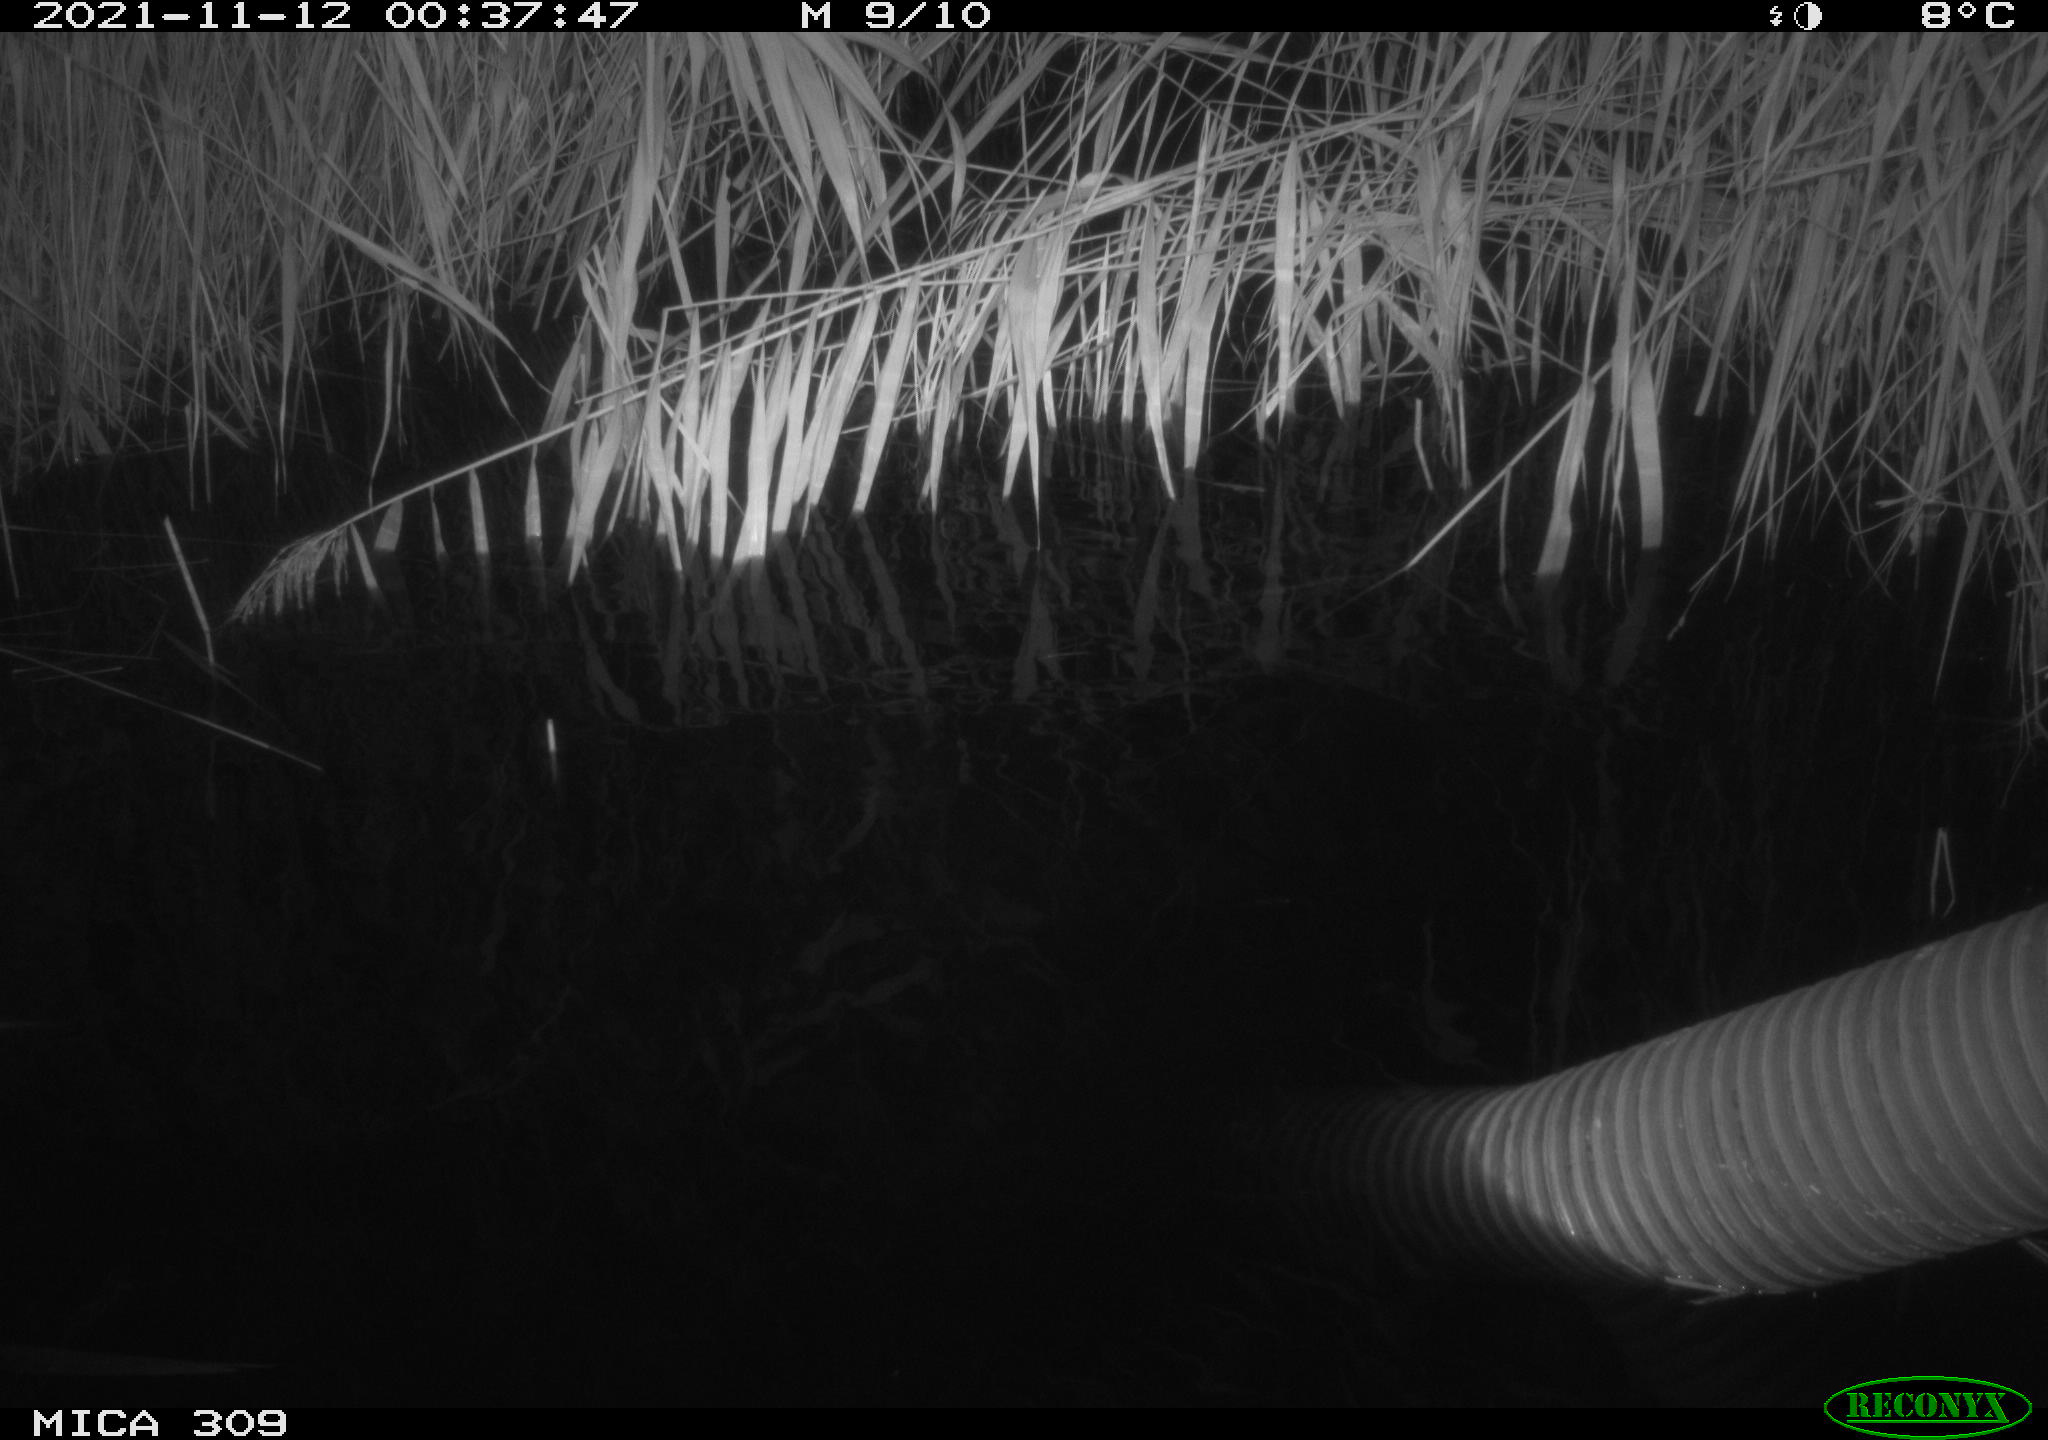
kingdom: Animalia
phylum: Chordata
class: Mammalia
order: Rodentia
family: Muridae
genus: Rattus
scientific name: Rattus norvegicus
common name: Brown rat
